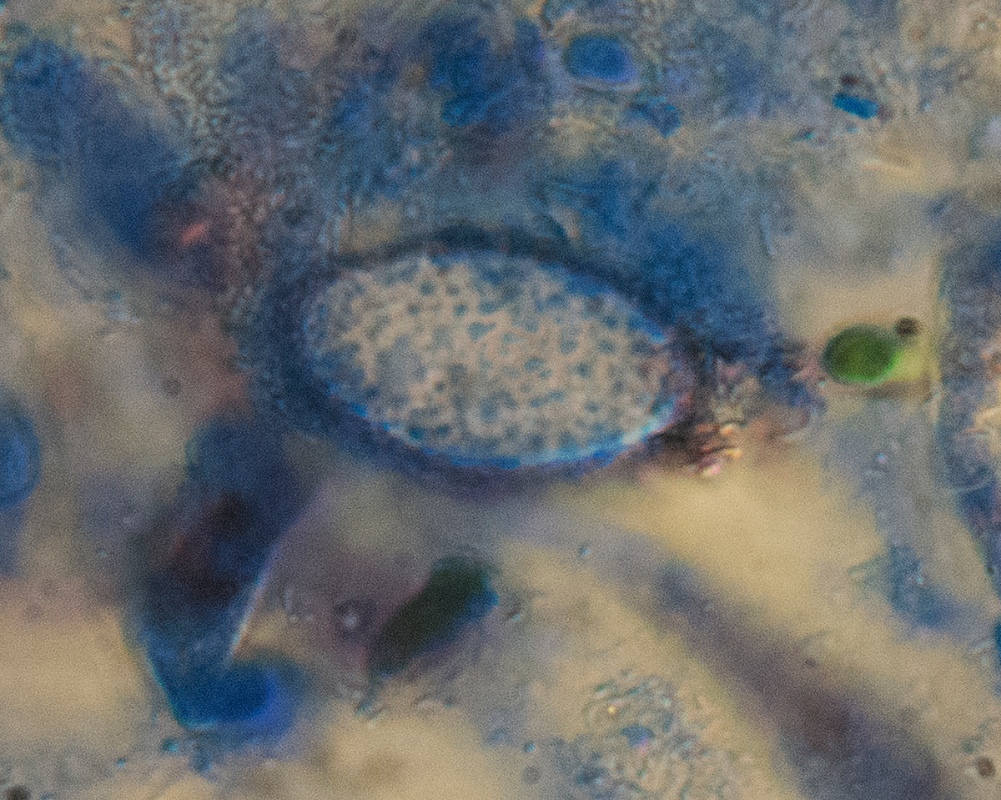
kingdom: Fungi
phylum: Ascomycota
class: Pezizomycetes
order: Pezizales
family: Pyronemataceae
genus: Scutellinia
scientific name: Scutellinia hirta
